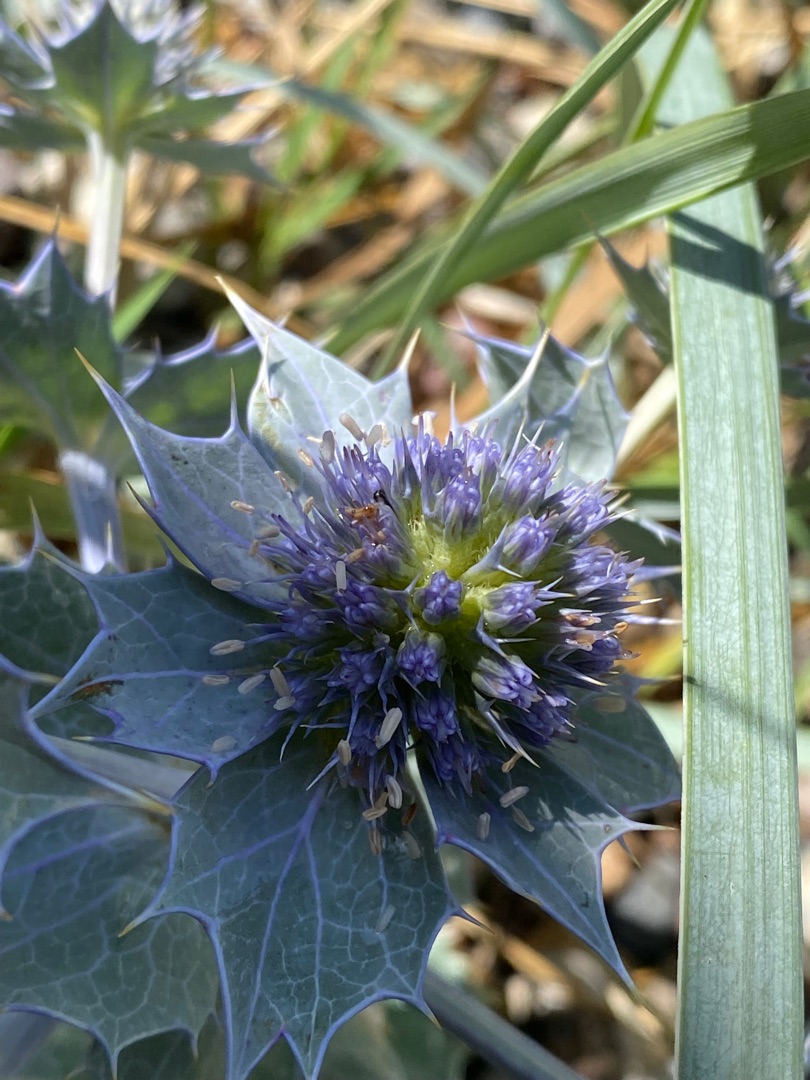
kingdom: Plantae
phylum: Tracheophyta
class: Magnoliopsida
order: Apiales
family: Apiaceae
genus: Eryngium
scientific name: Eryngium maritimum
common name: Strand-mandstro
